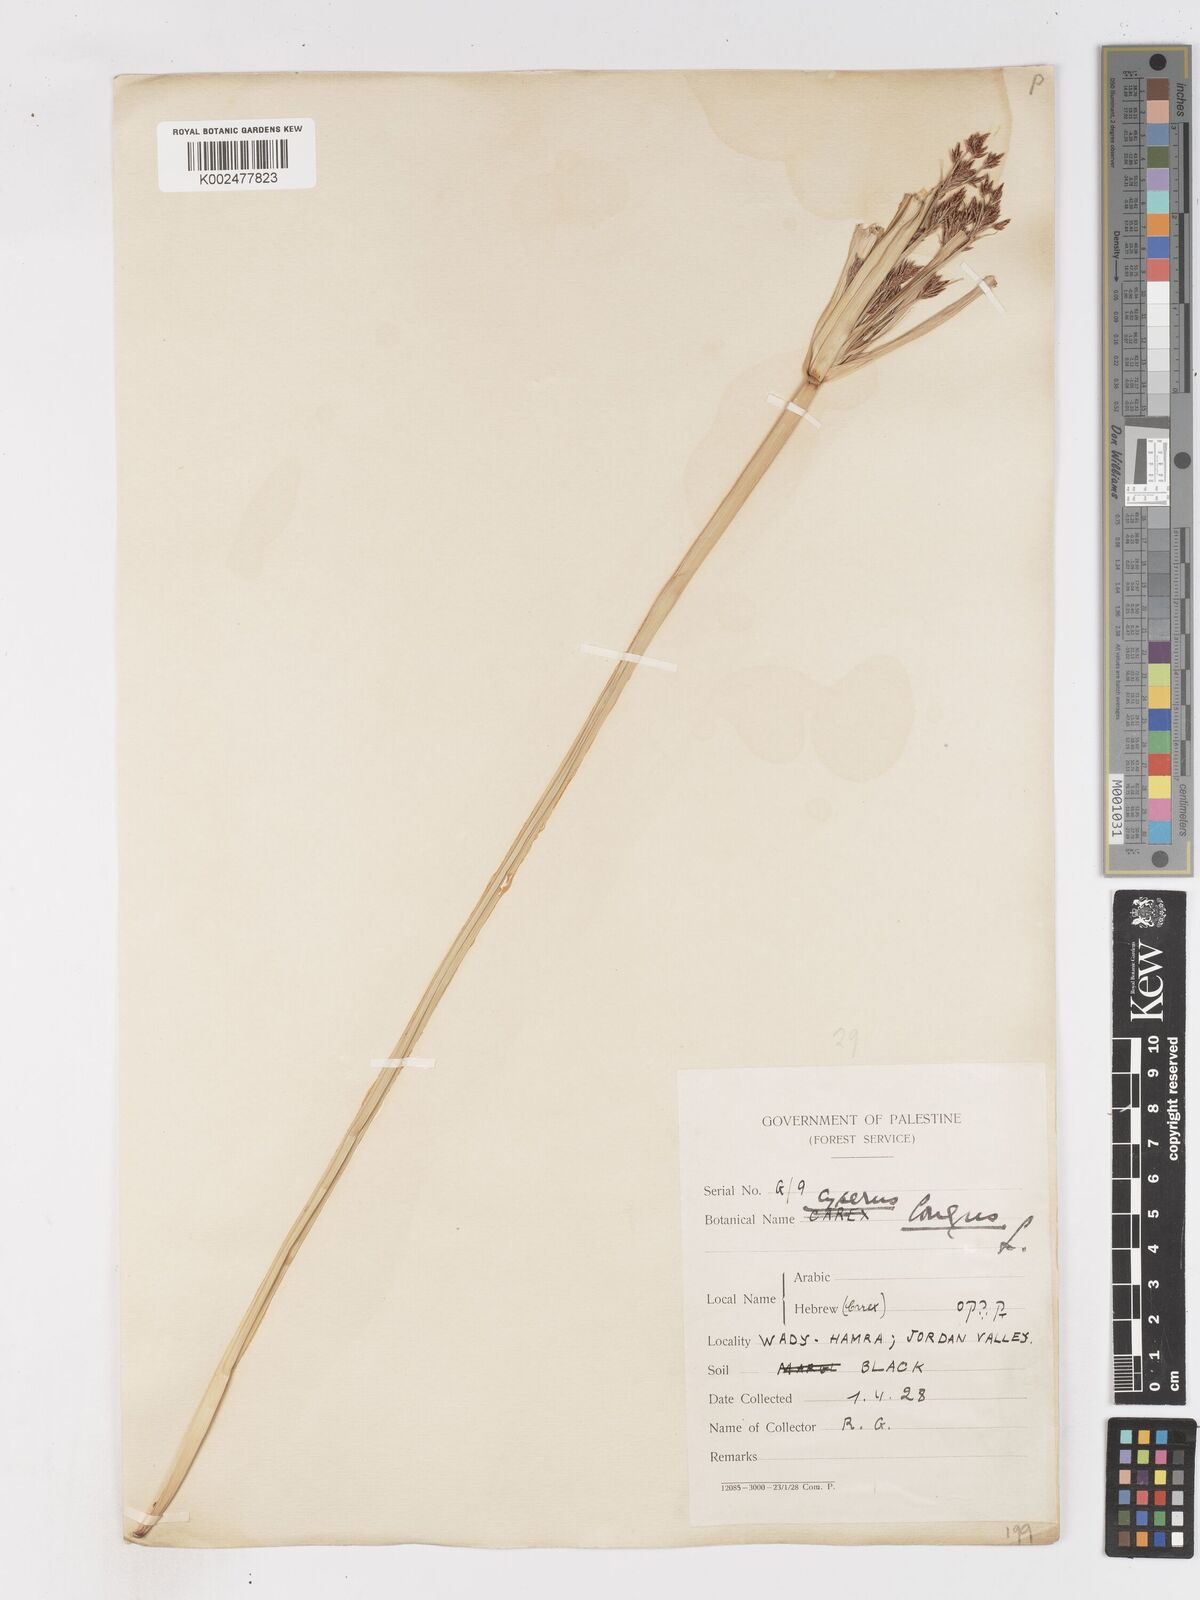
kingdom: Plantae
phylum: Tracheophyta
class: Liliopsida
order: Poales
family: Cyperaceae
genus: Cyperus
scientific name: Cyperus longus
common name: Galingale
